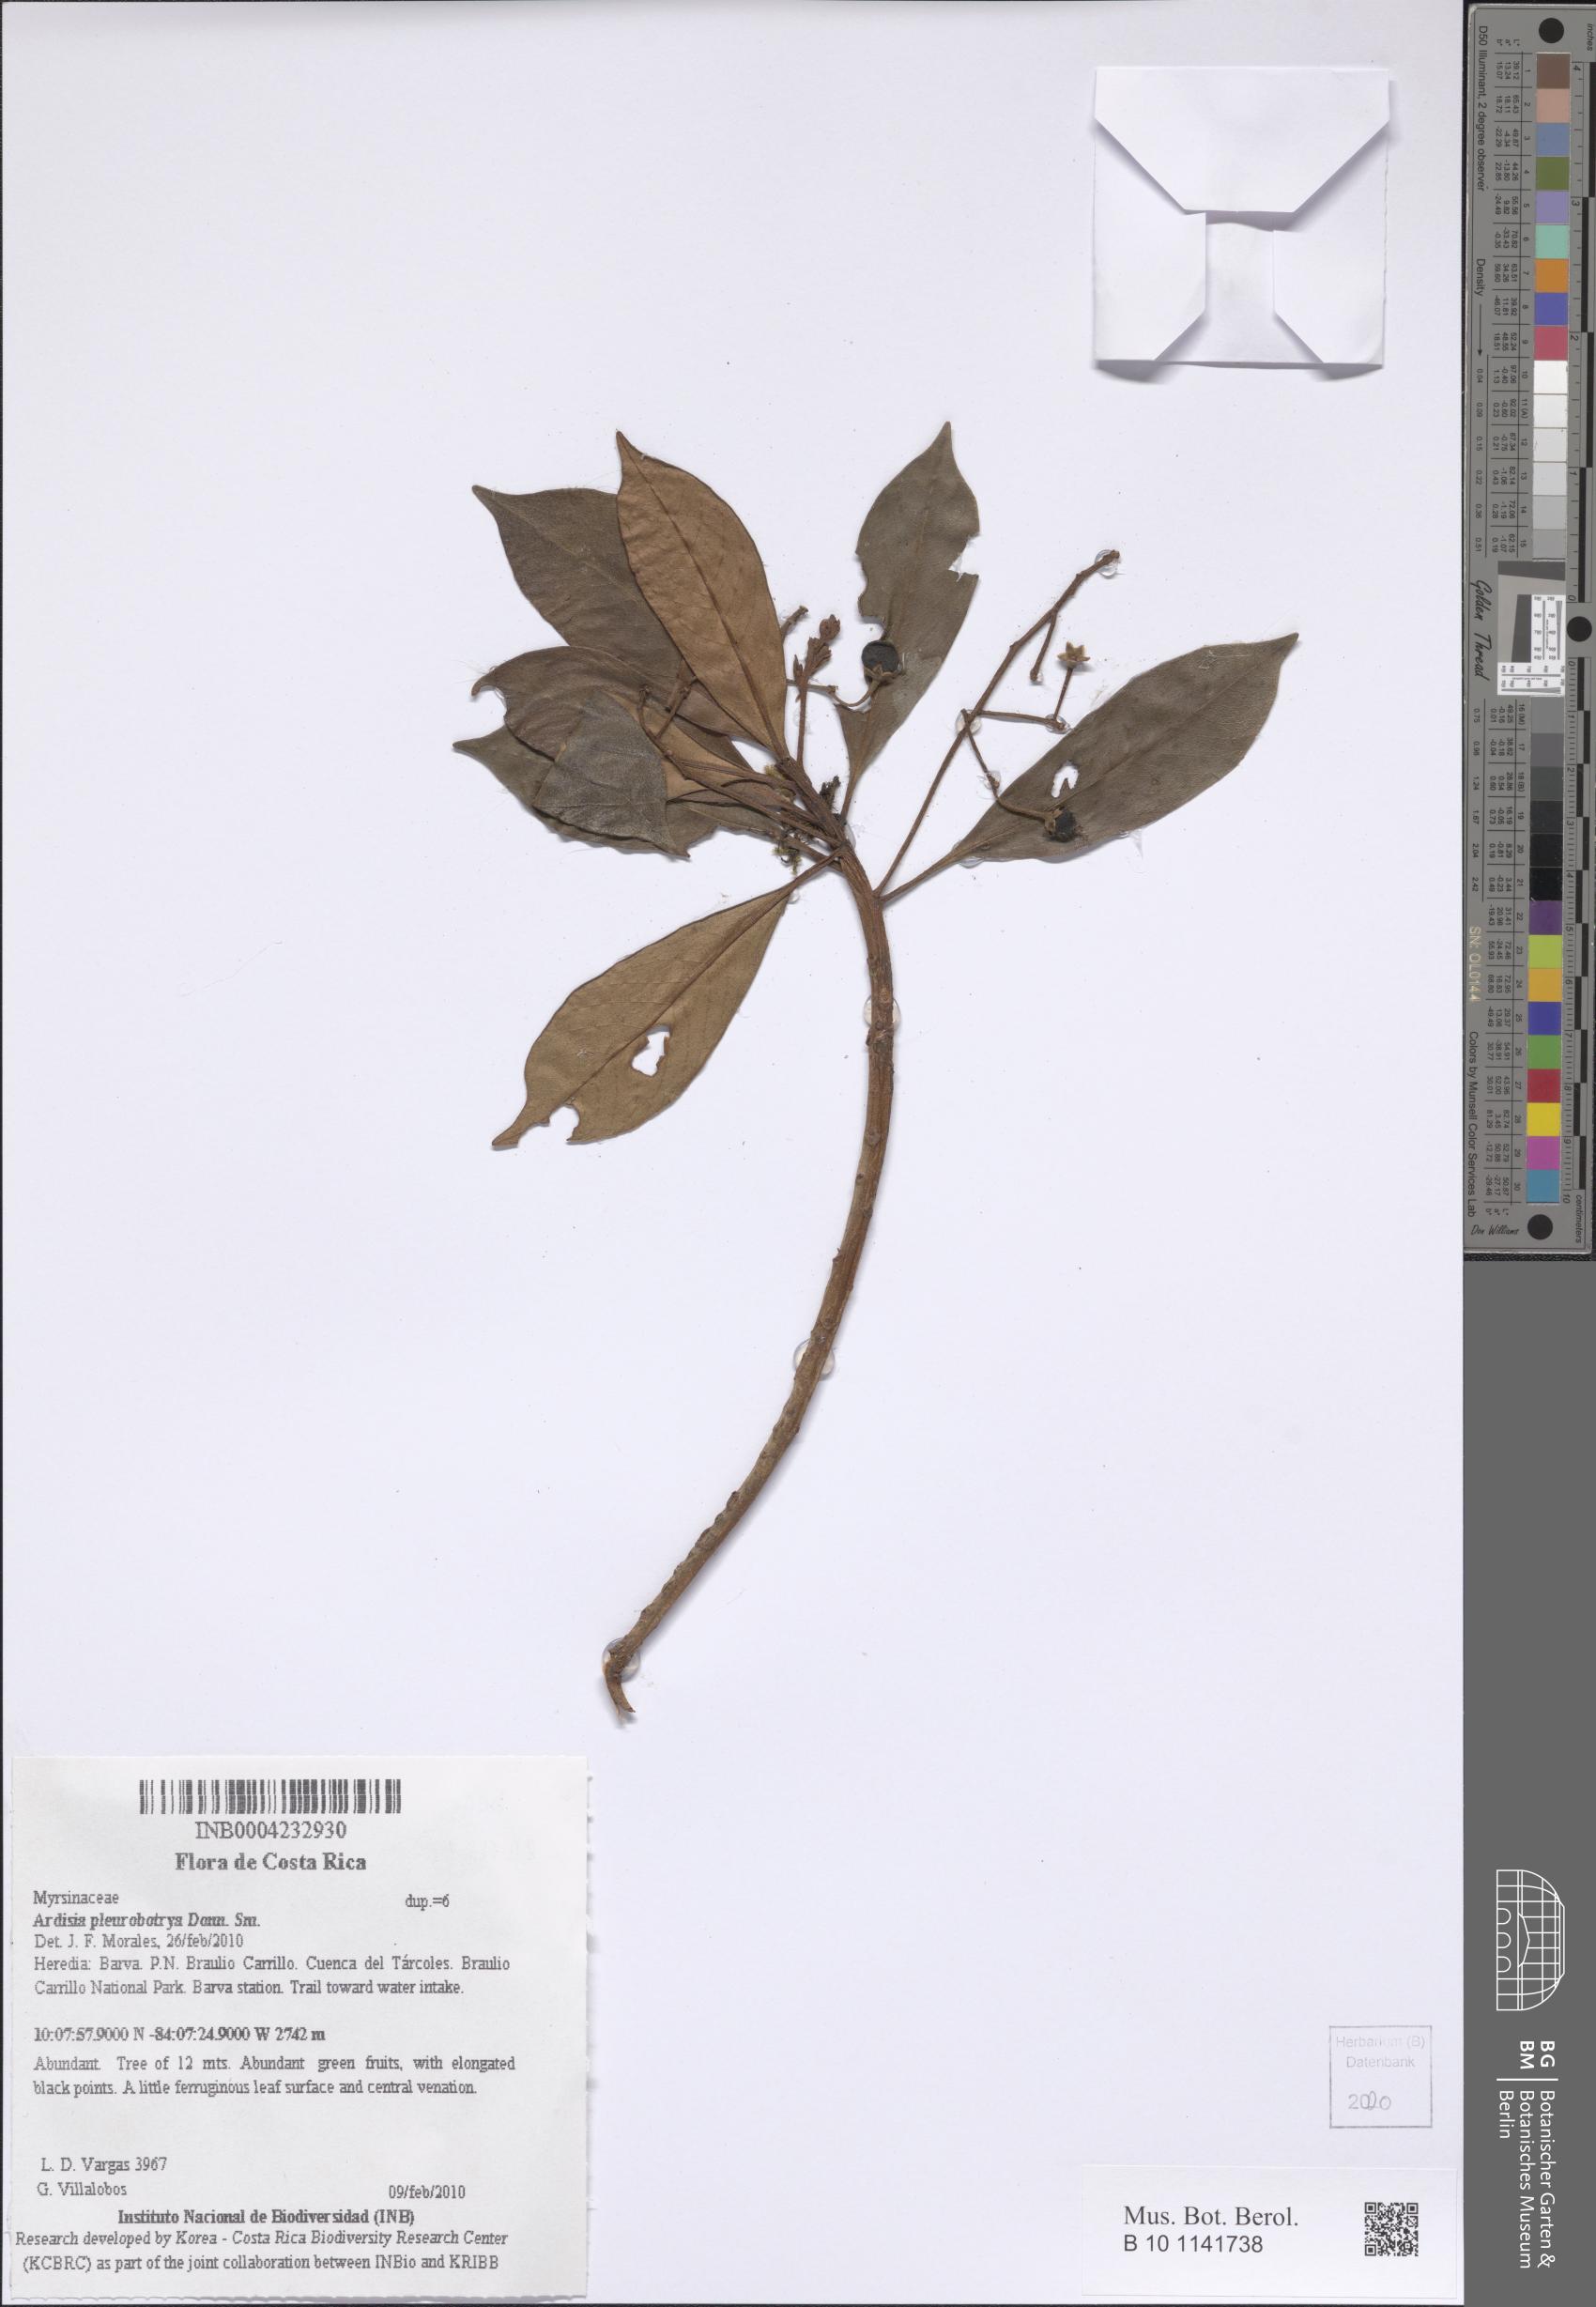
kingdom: Plantae
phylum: Tracheophyta
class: Magnoliopsida
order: Ericales
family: Primulaceae
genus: Ardisia
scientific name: Ardisia pleurobotrya
